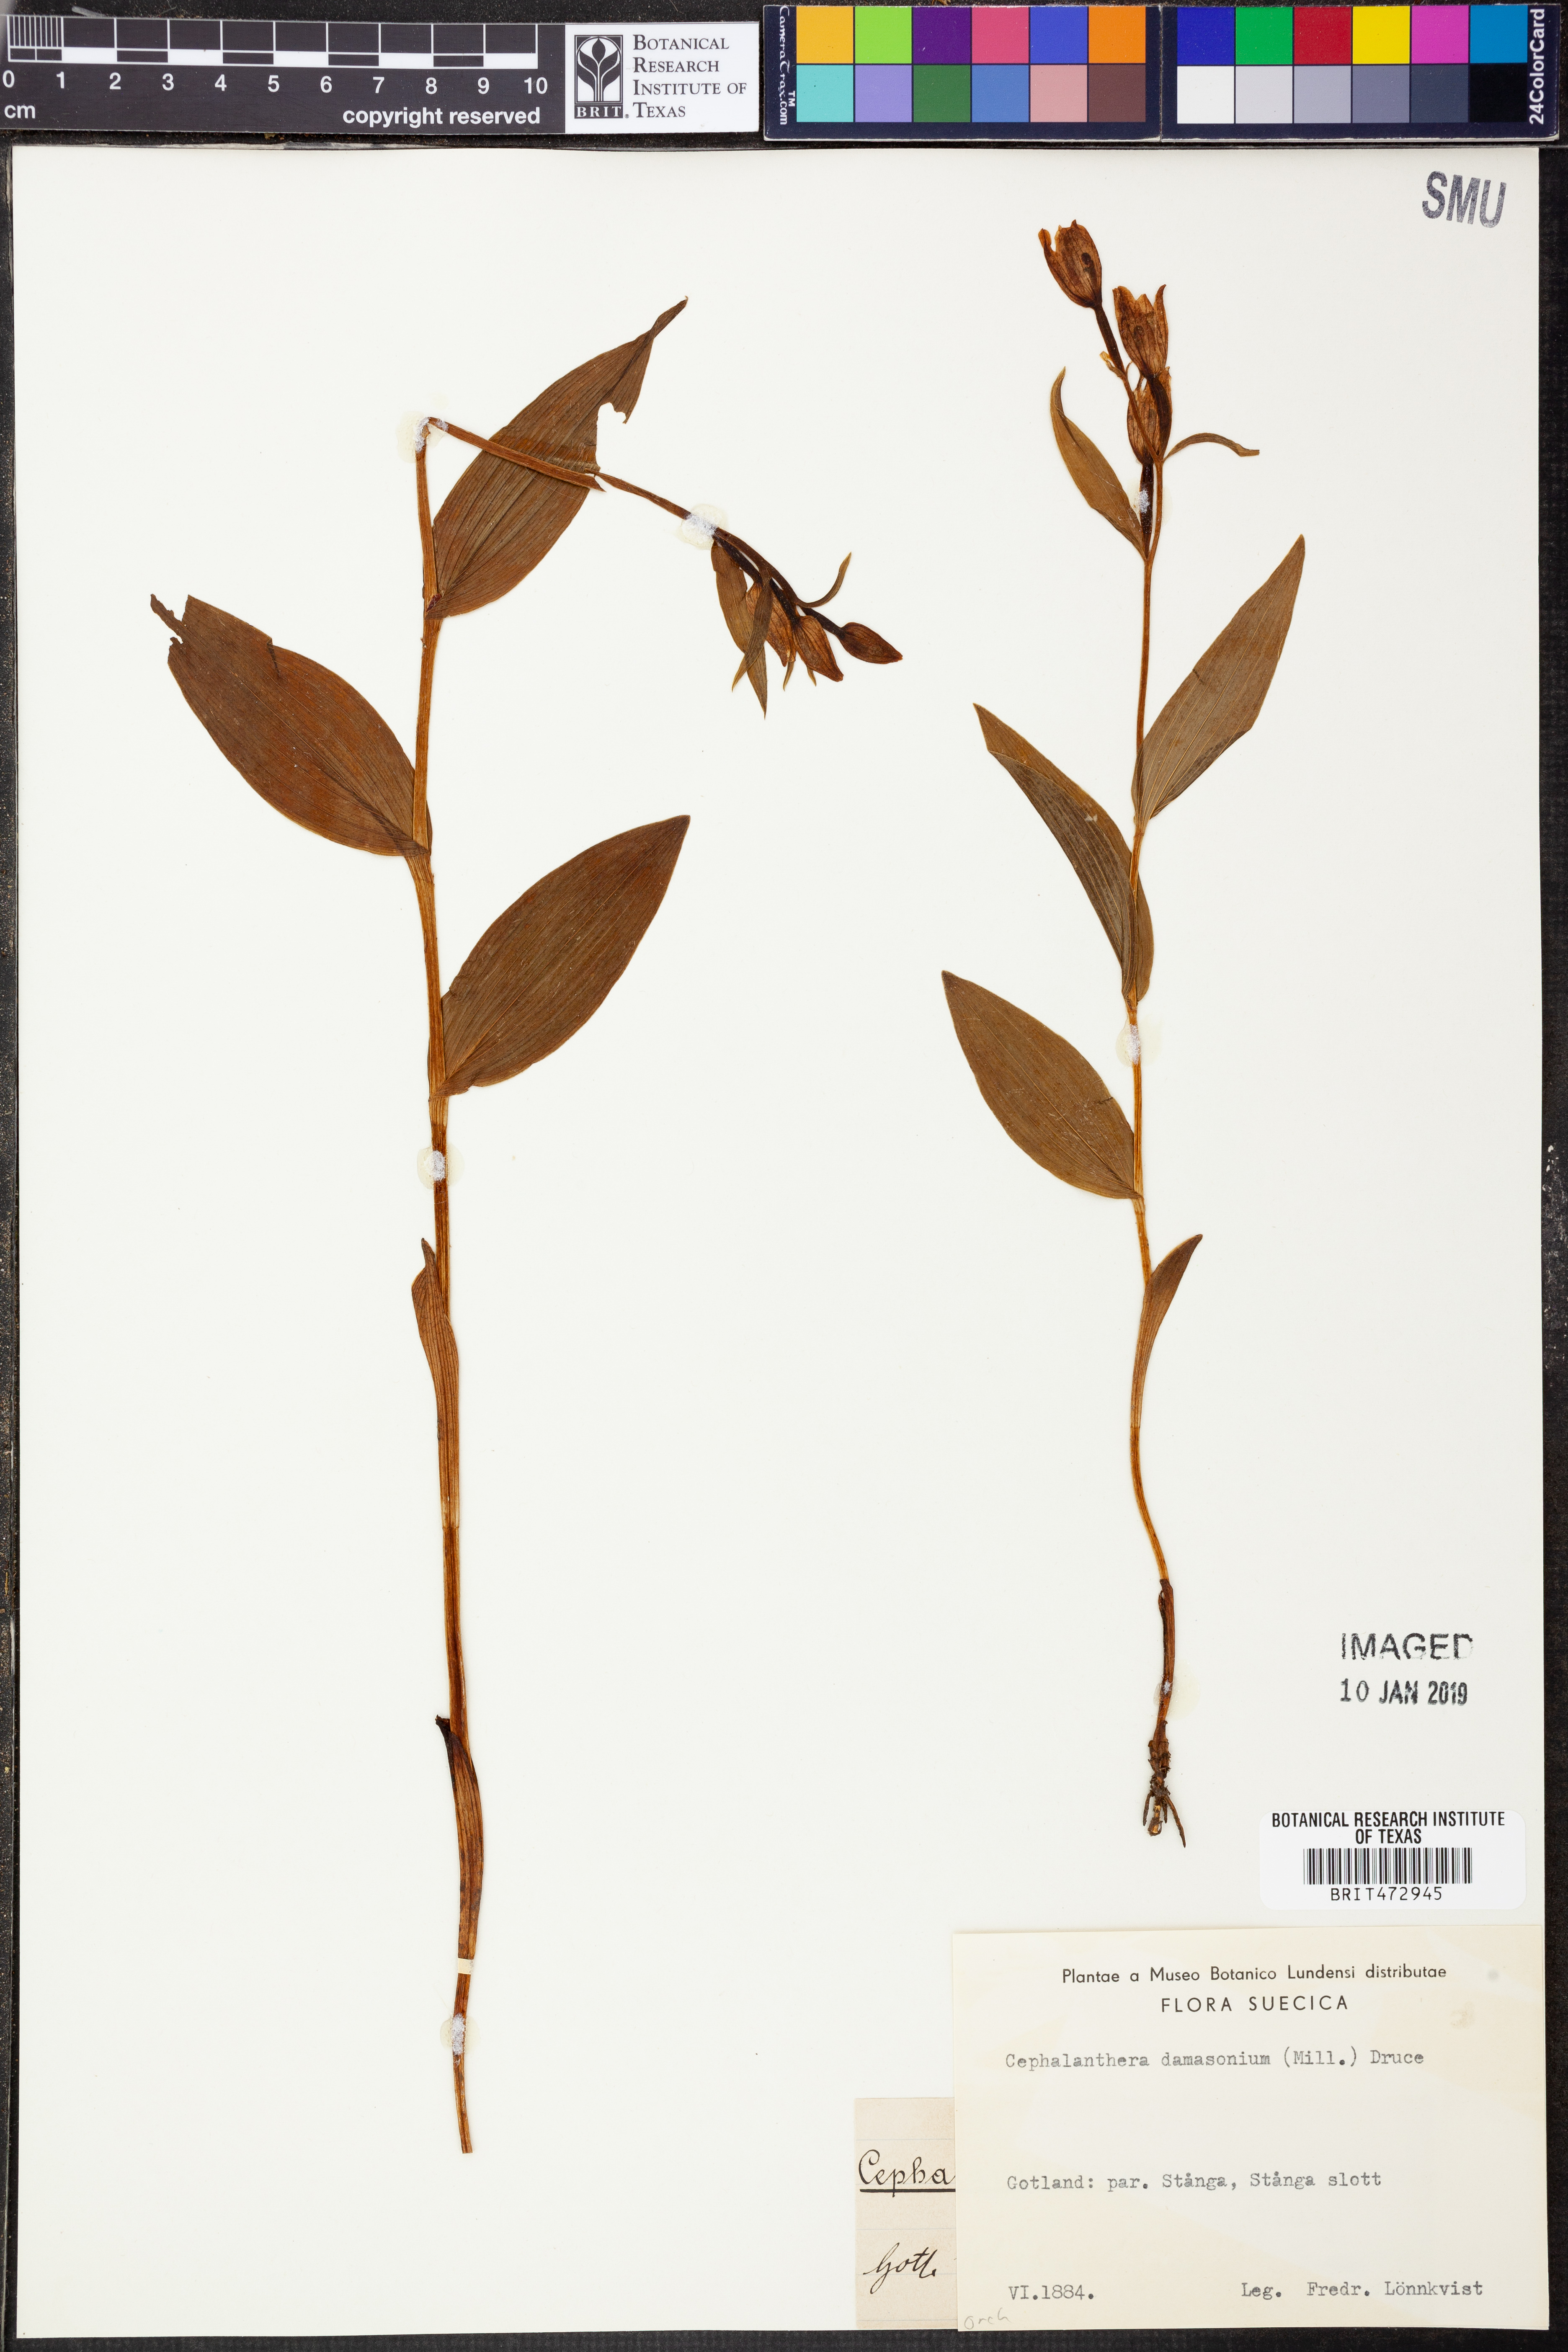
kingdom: Plantae
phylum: Tracheophyta
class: Liliopsida
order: Asparagales
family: Orchidaceae
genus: Cephalanthera
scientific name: Cephalanthera damasonium
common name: White helleborine
